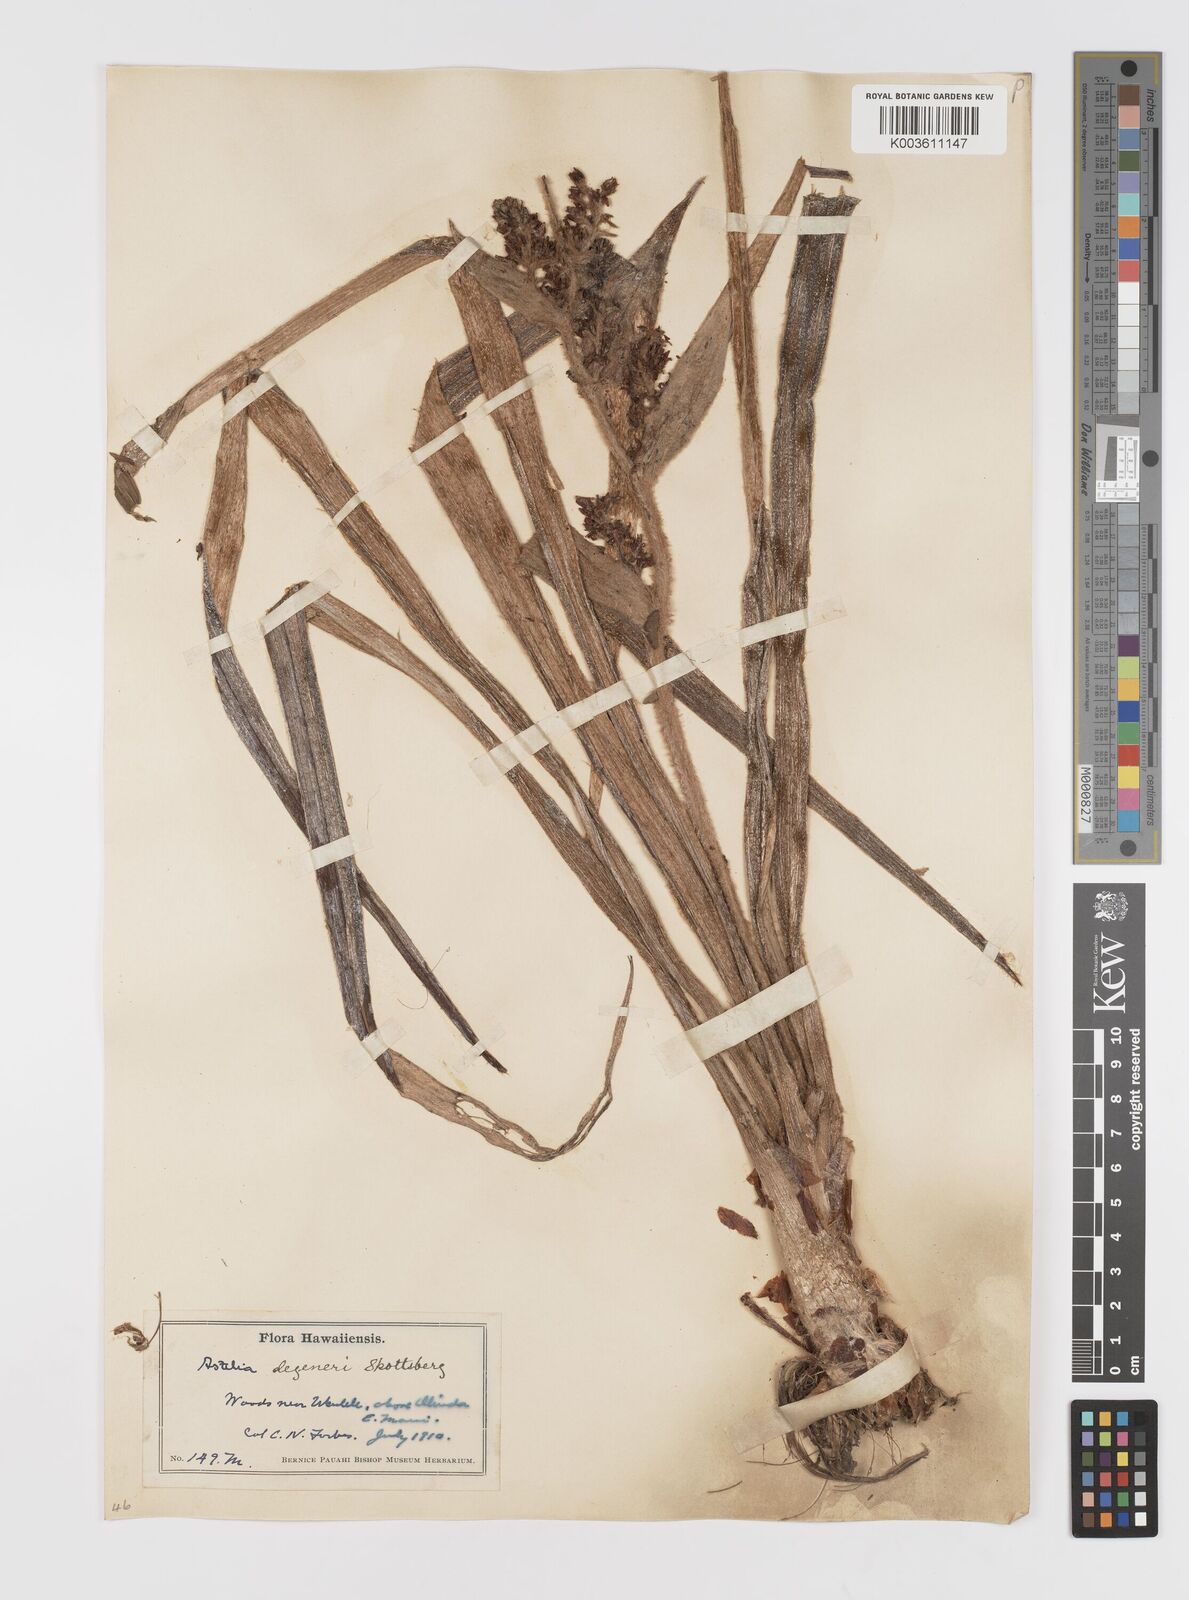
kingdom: Plantae
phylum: Tracheophyta
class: Liliopsida
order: Asparagales
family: Asteliaceae
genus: Astelia
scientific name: Astelia menziesiana
